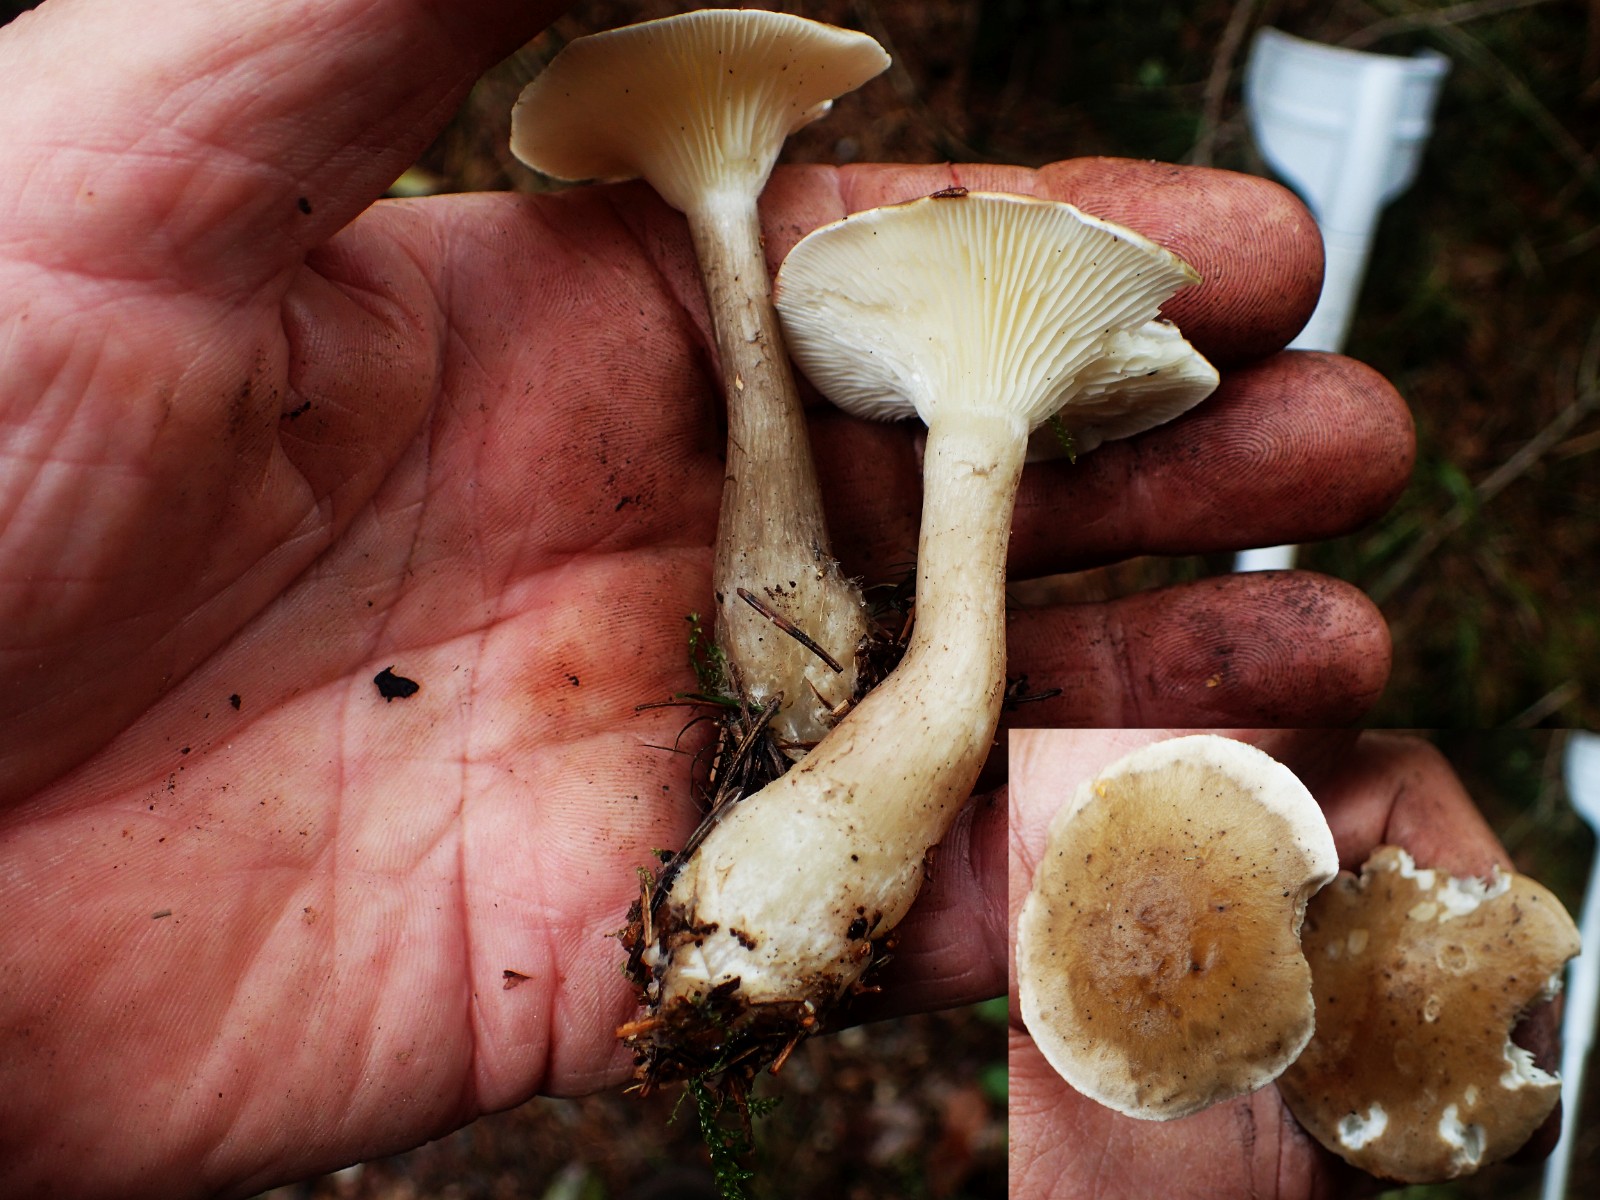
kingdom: Fungi
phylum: Basidiomycota
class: Agaricomycetes
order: Agaricales
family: Hygrophoraceae
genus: Ampulloclitocybe
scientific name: Ampulloclitocybe clavipes
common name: køllefod
